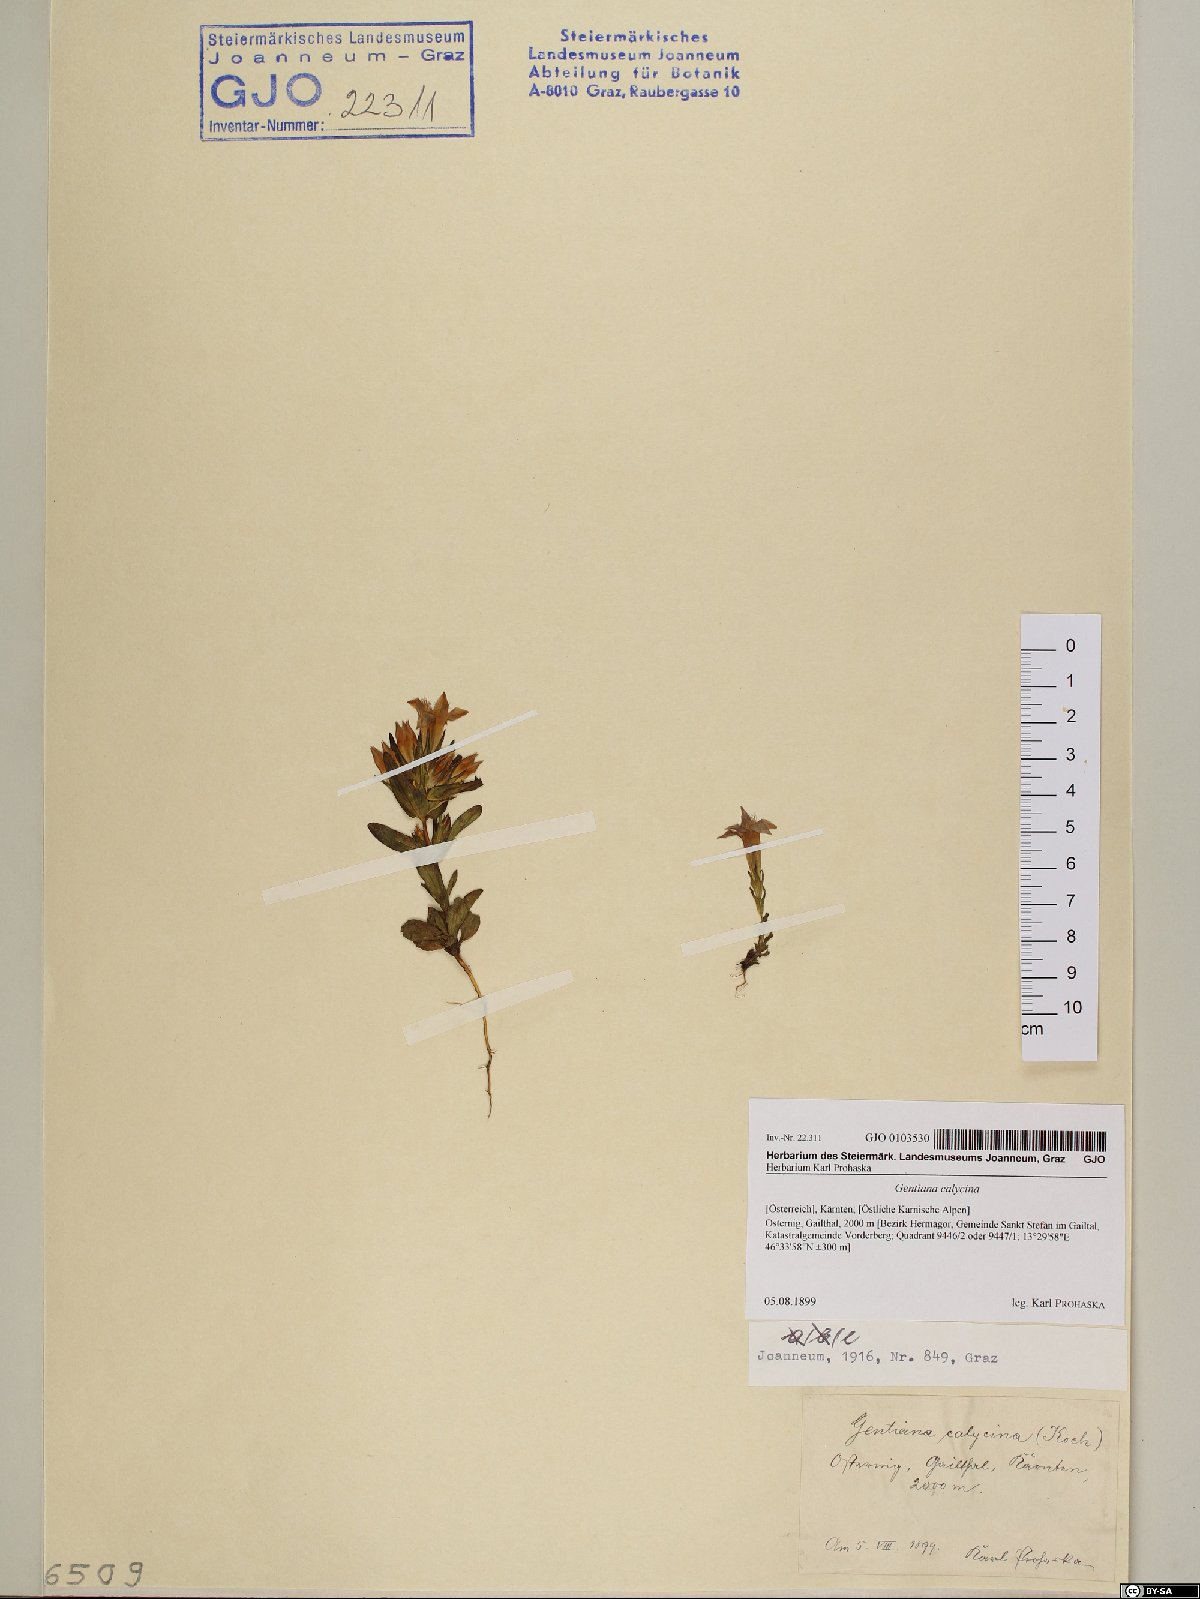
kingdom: Plantae
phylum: Tracheophyta
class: Magnoliopsida
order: Gentianales
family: Gentianaceae
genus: Gentianella
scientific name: Gentianella germanica
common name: Chiltern-gentian
